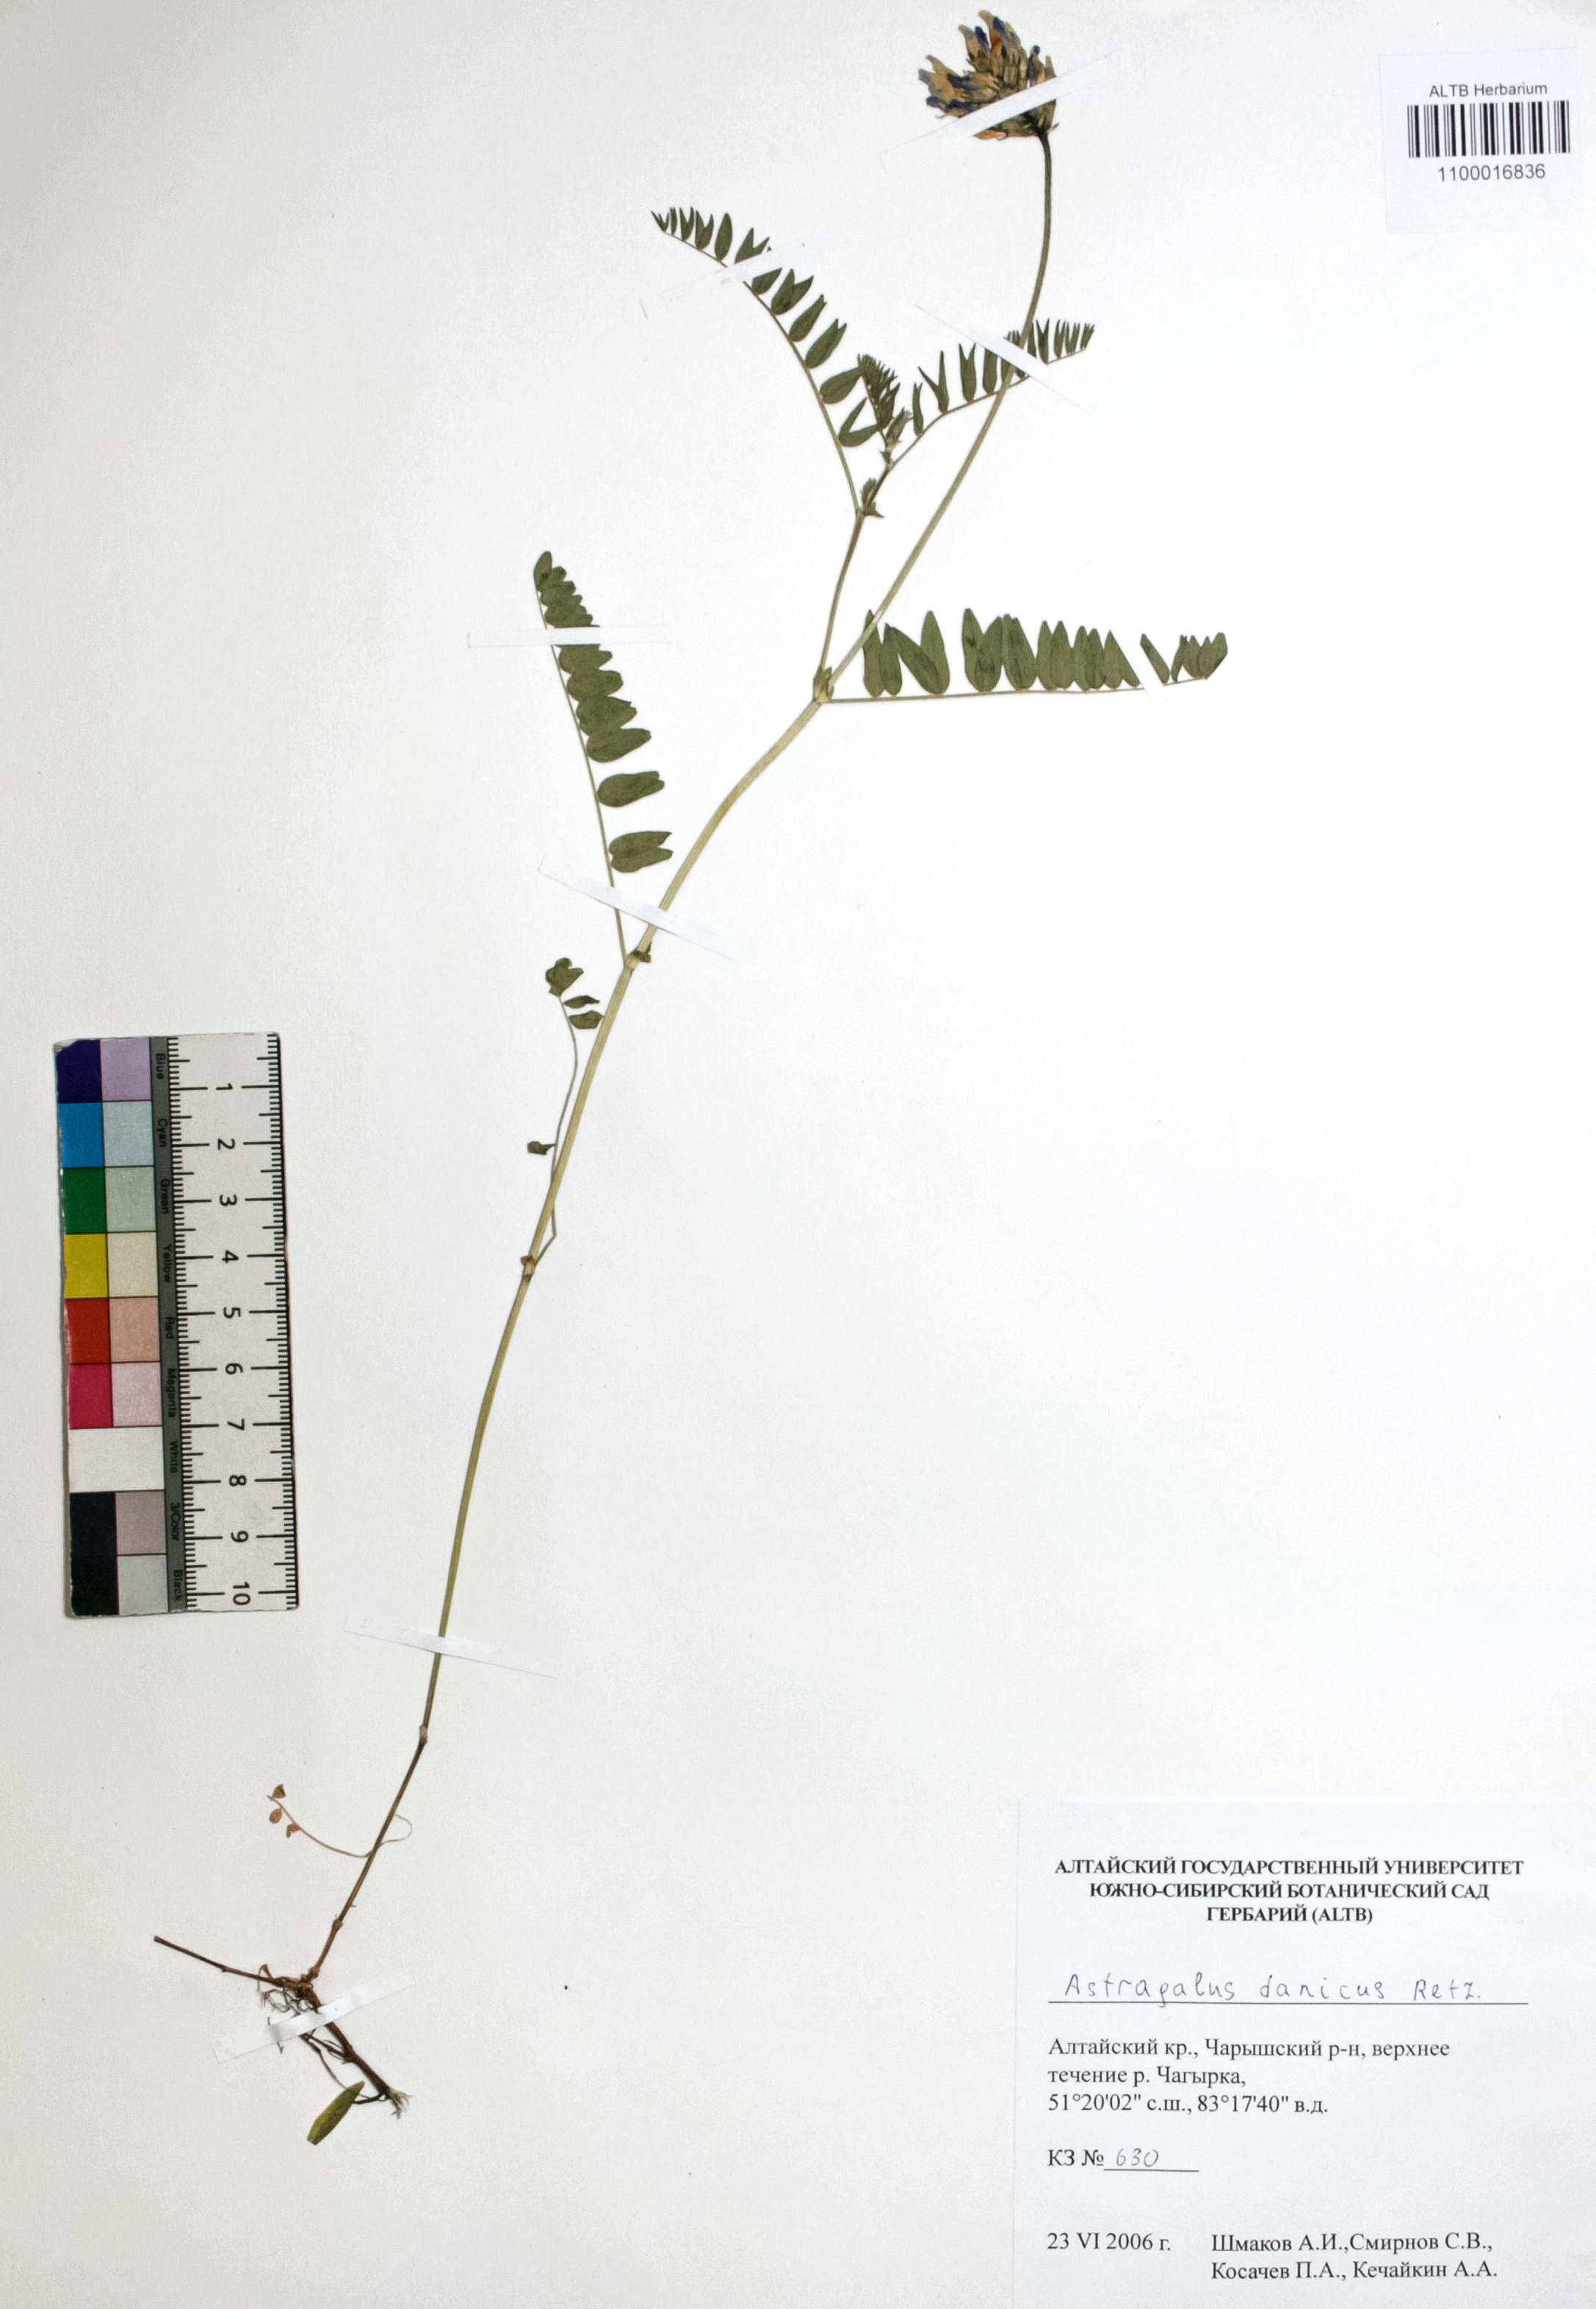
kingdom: Plantae
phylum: Tracheophyta
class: Magnoliopsida
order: Fabales
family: Fabaceae
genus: Astragalus
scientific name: Astragalus danicus
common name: Purple milk-vetch
